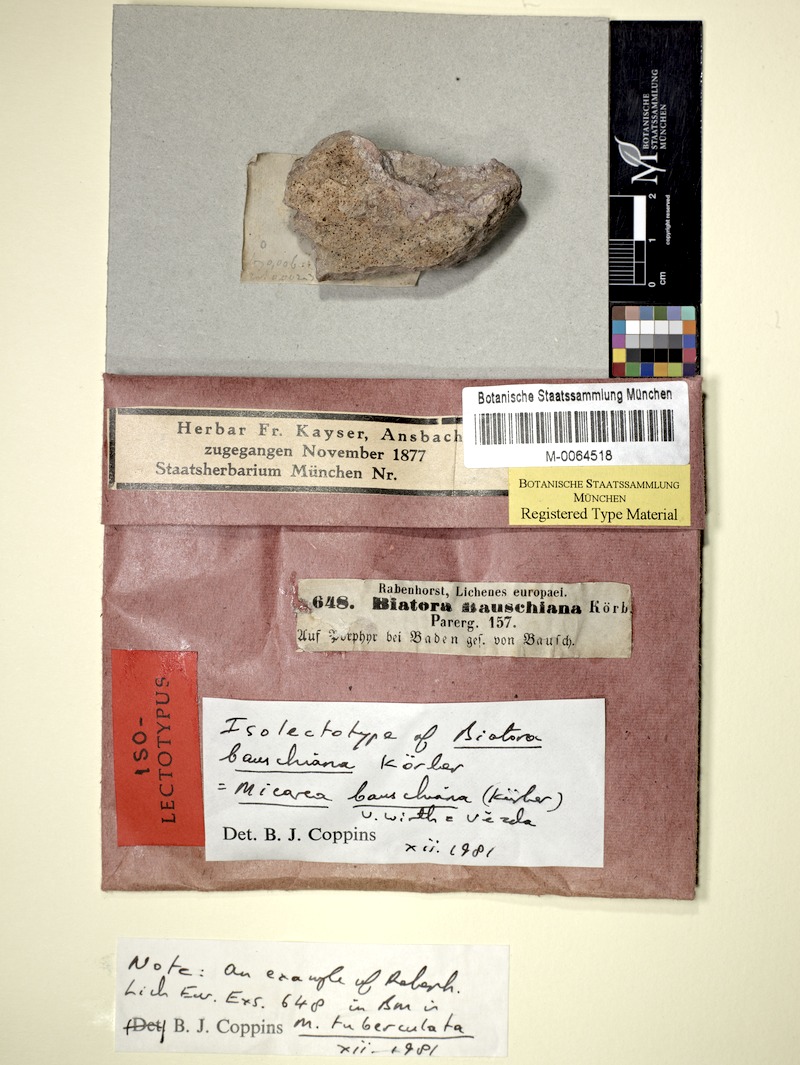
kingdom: Fungi
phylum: Ascomycota
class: Lecanoromycetes
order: Lecanorales
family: Psoraceae
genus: Brianaria
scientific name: Brianaria bauschiana
